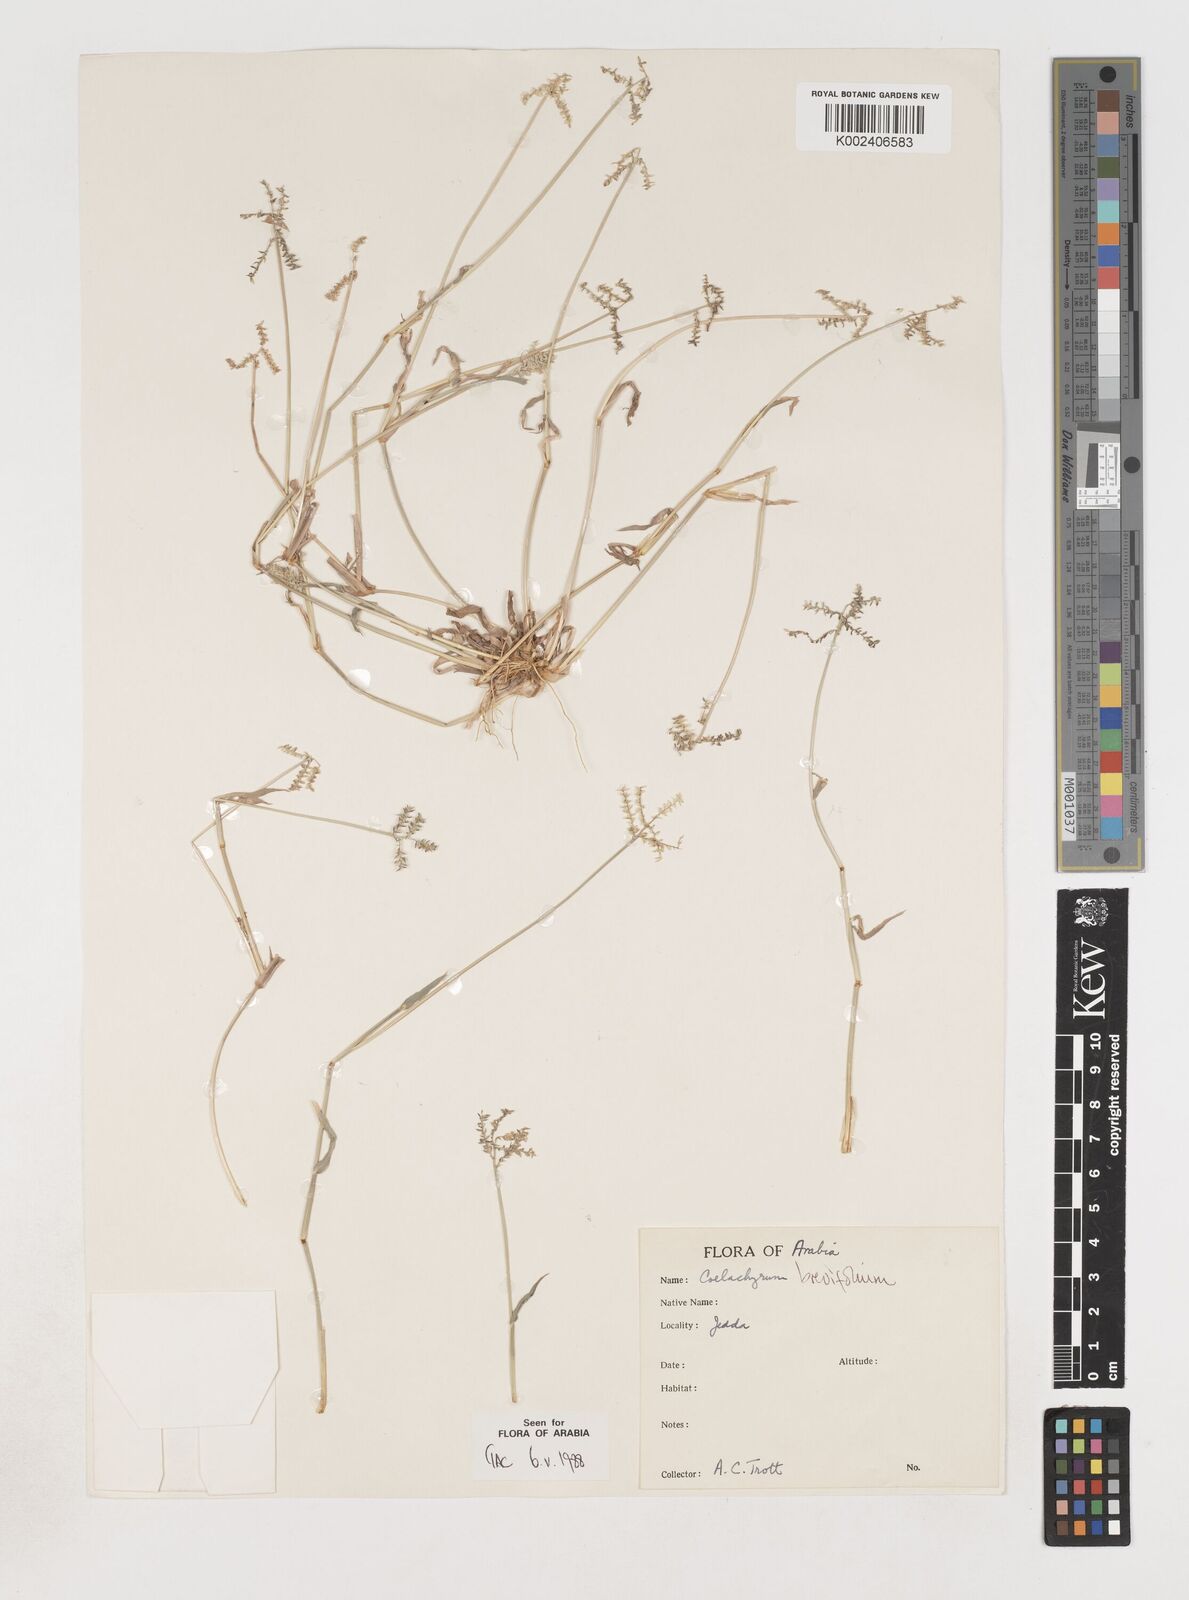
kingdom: Plantae
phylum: Tracheophyta
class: Liliopsida
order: Poales
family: Poaceae
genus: Coelachyrum
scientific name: Coelachyrum brevifolium
